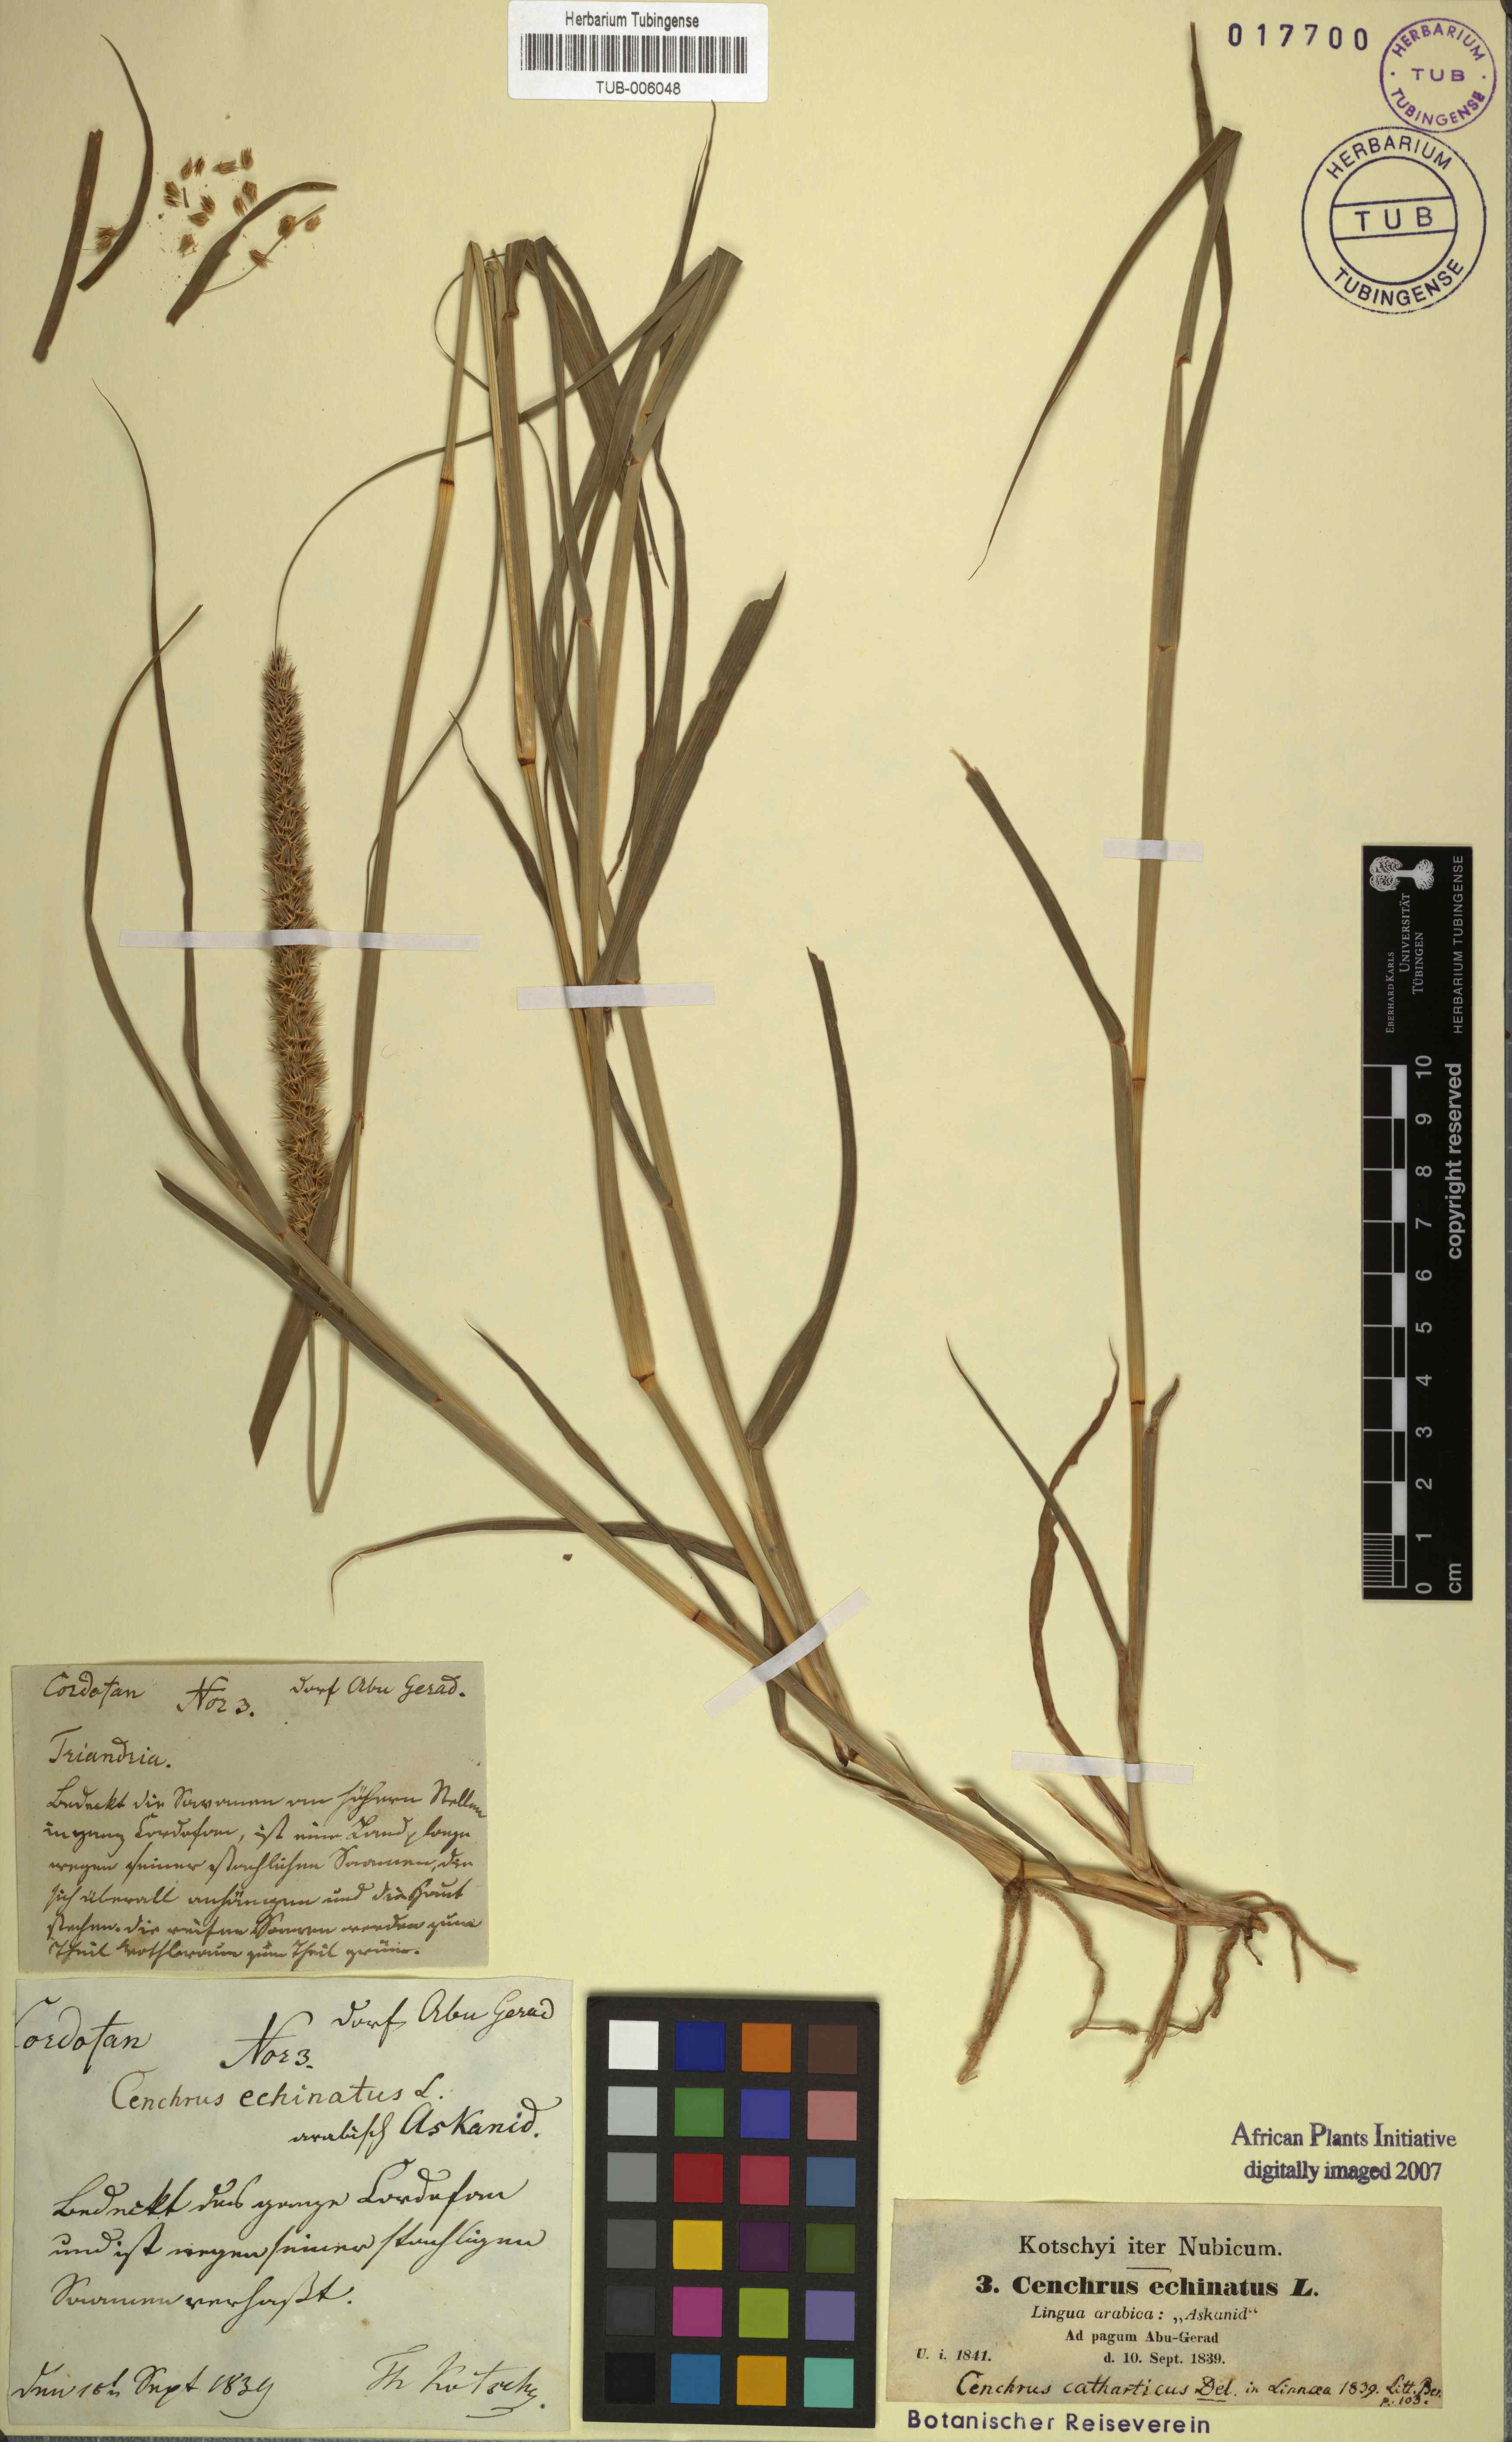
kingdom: Plantae
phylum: Tracheophyta
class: Liliopsida
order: Poales
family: Poaceae
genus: Cenchrus
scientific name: Cenchrus echinatus
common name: Southern sandbur
